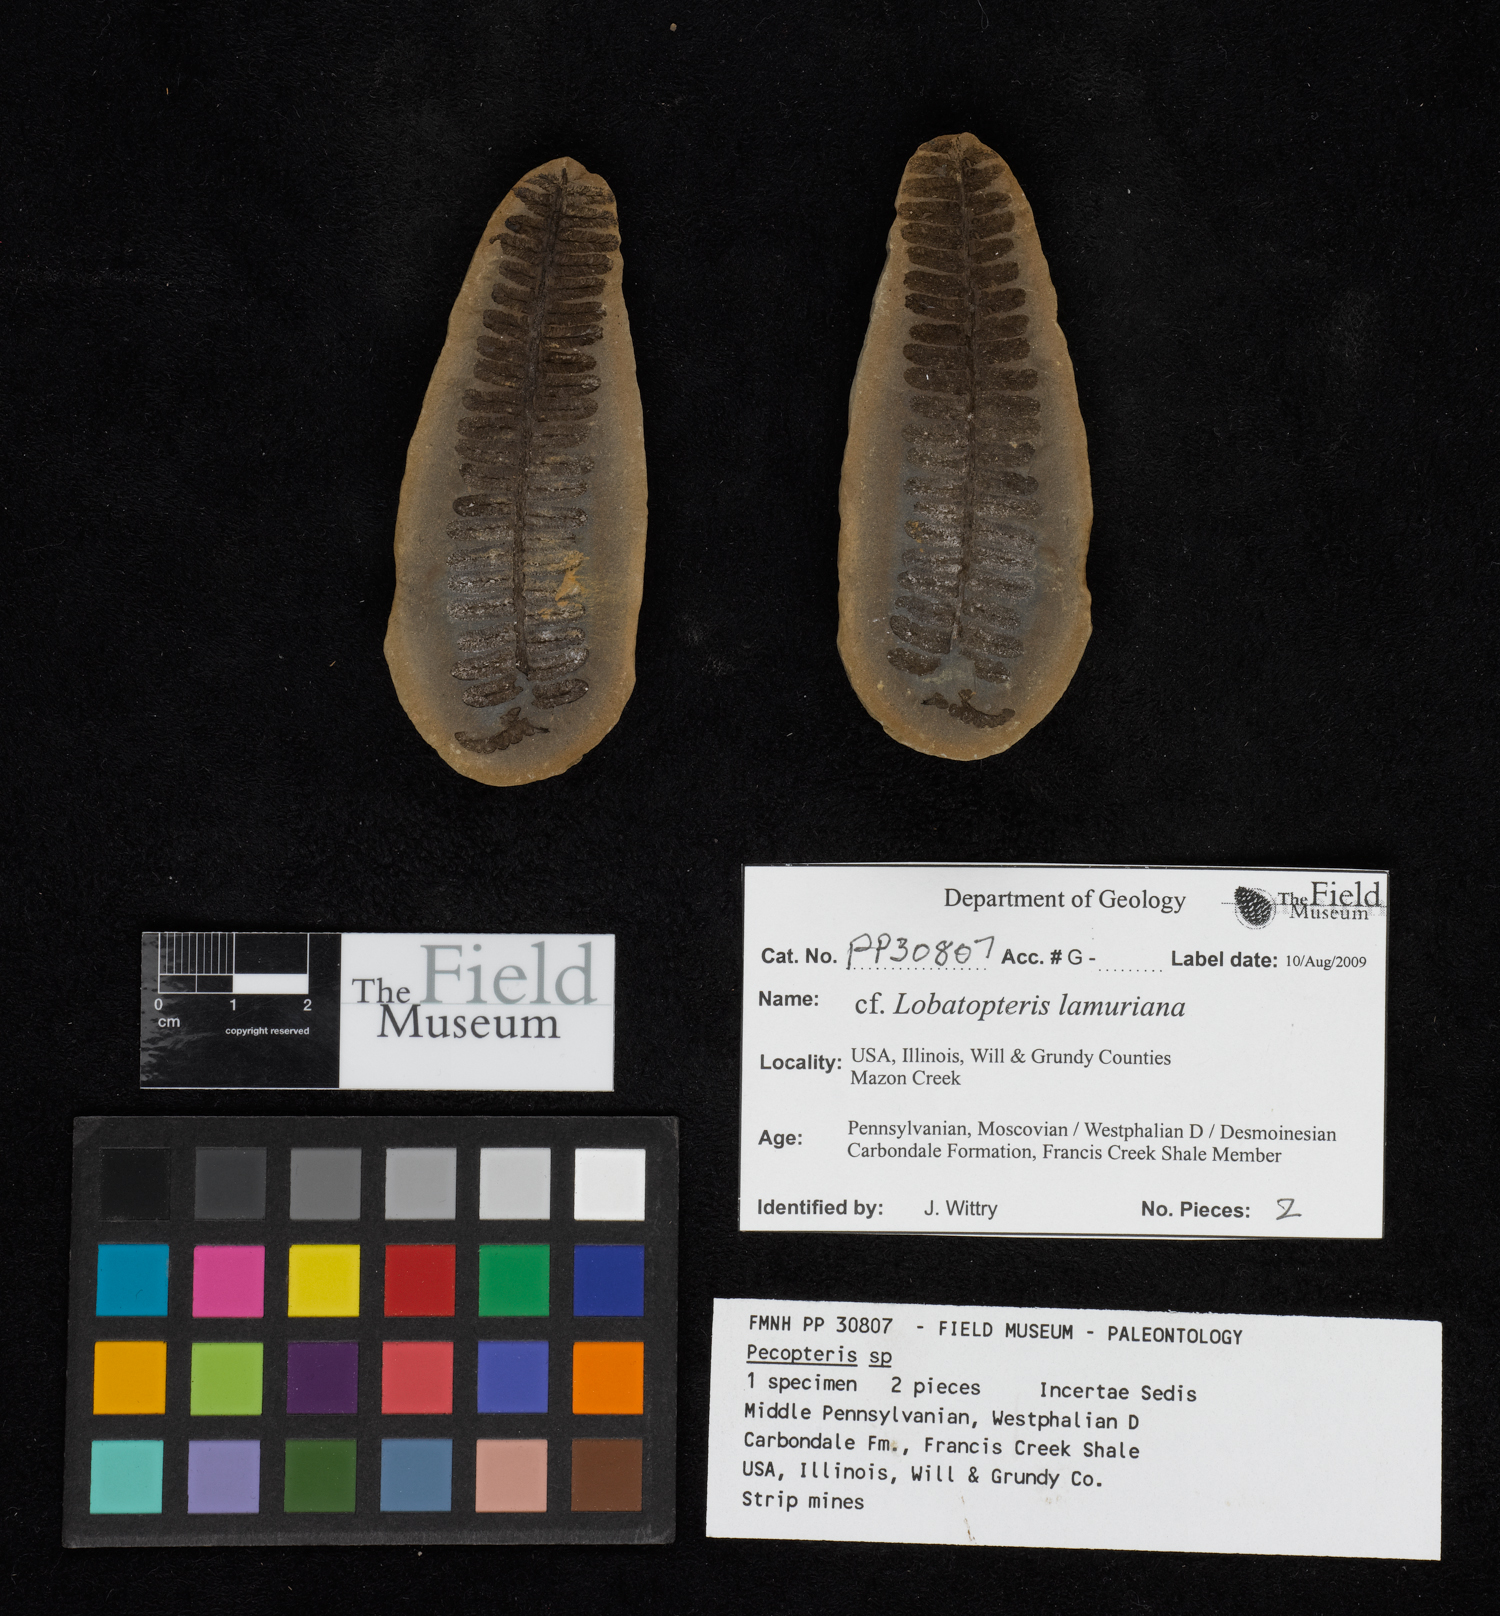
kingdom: Plantae
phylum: Tracheophyta
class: Polypodiopsida
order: Marattiales
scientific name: Marattiales
